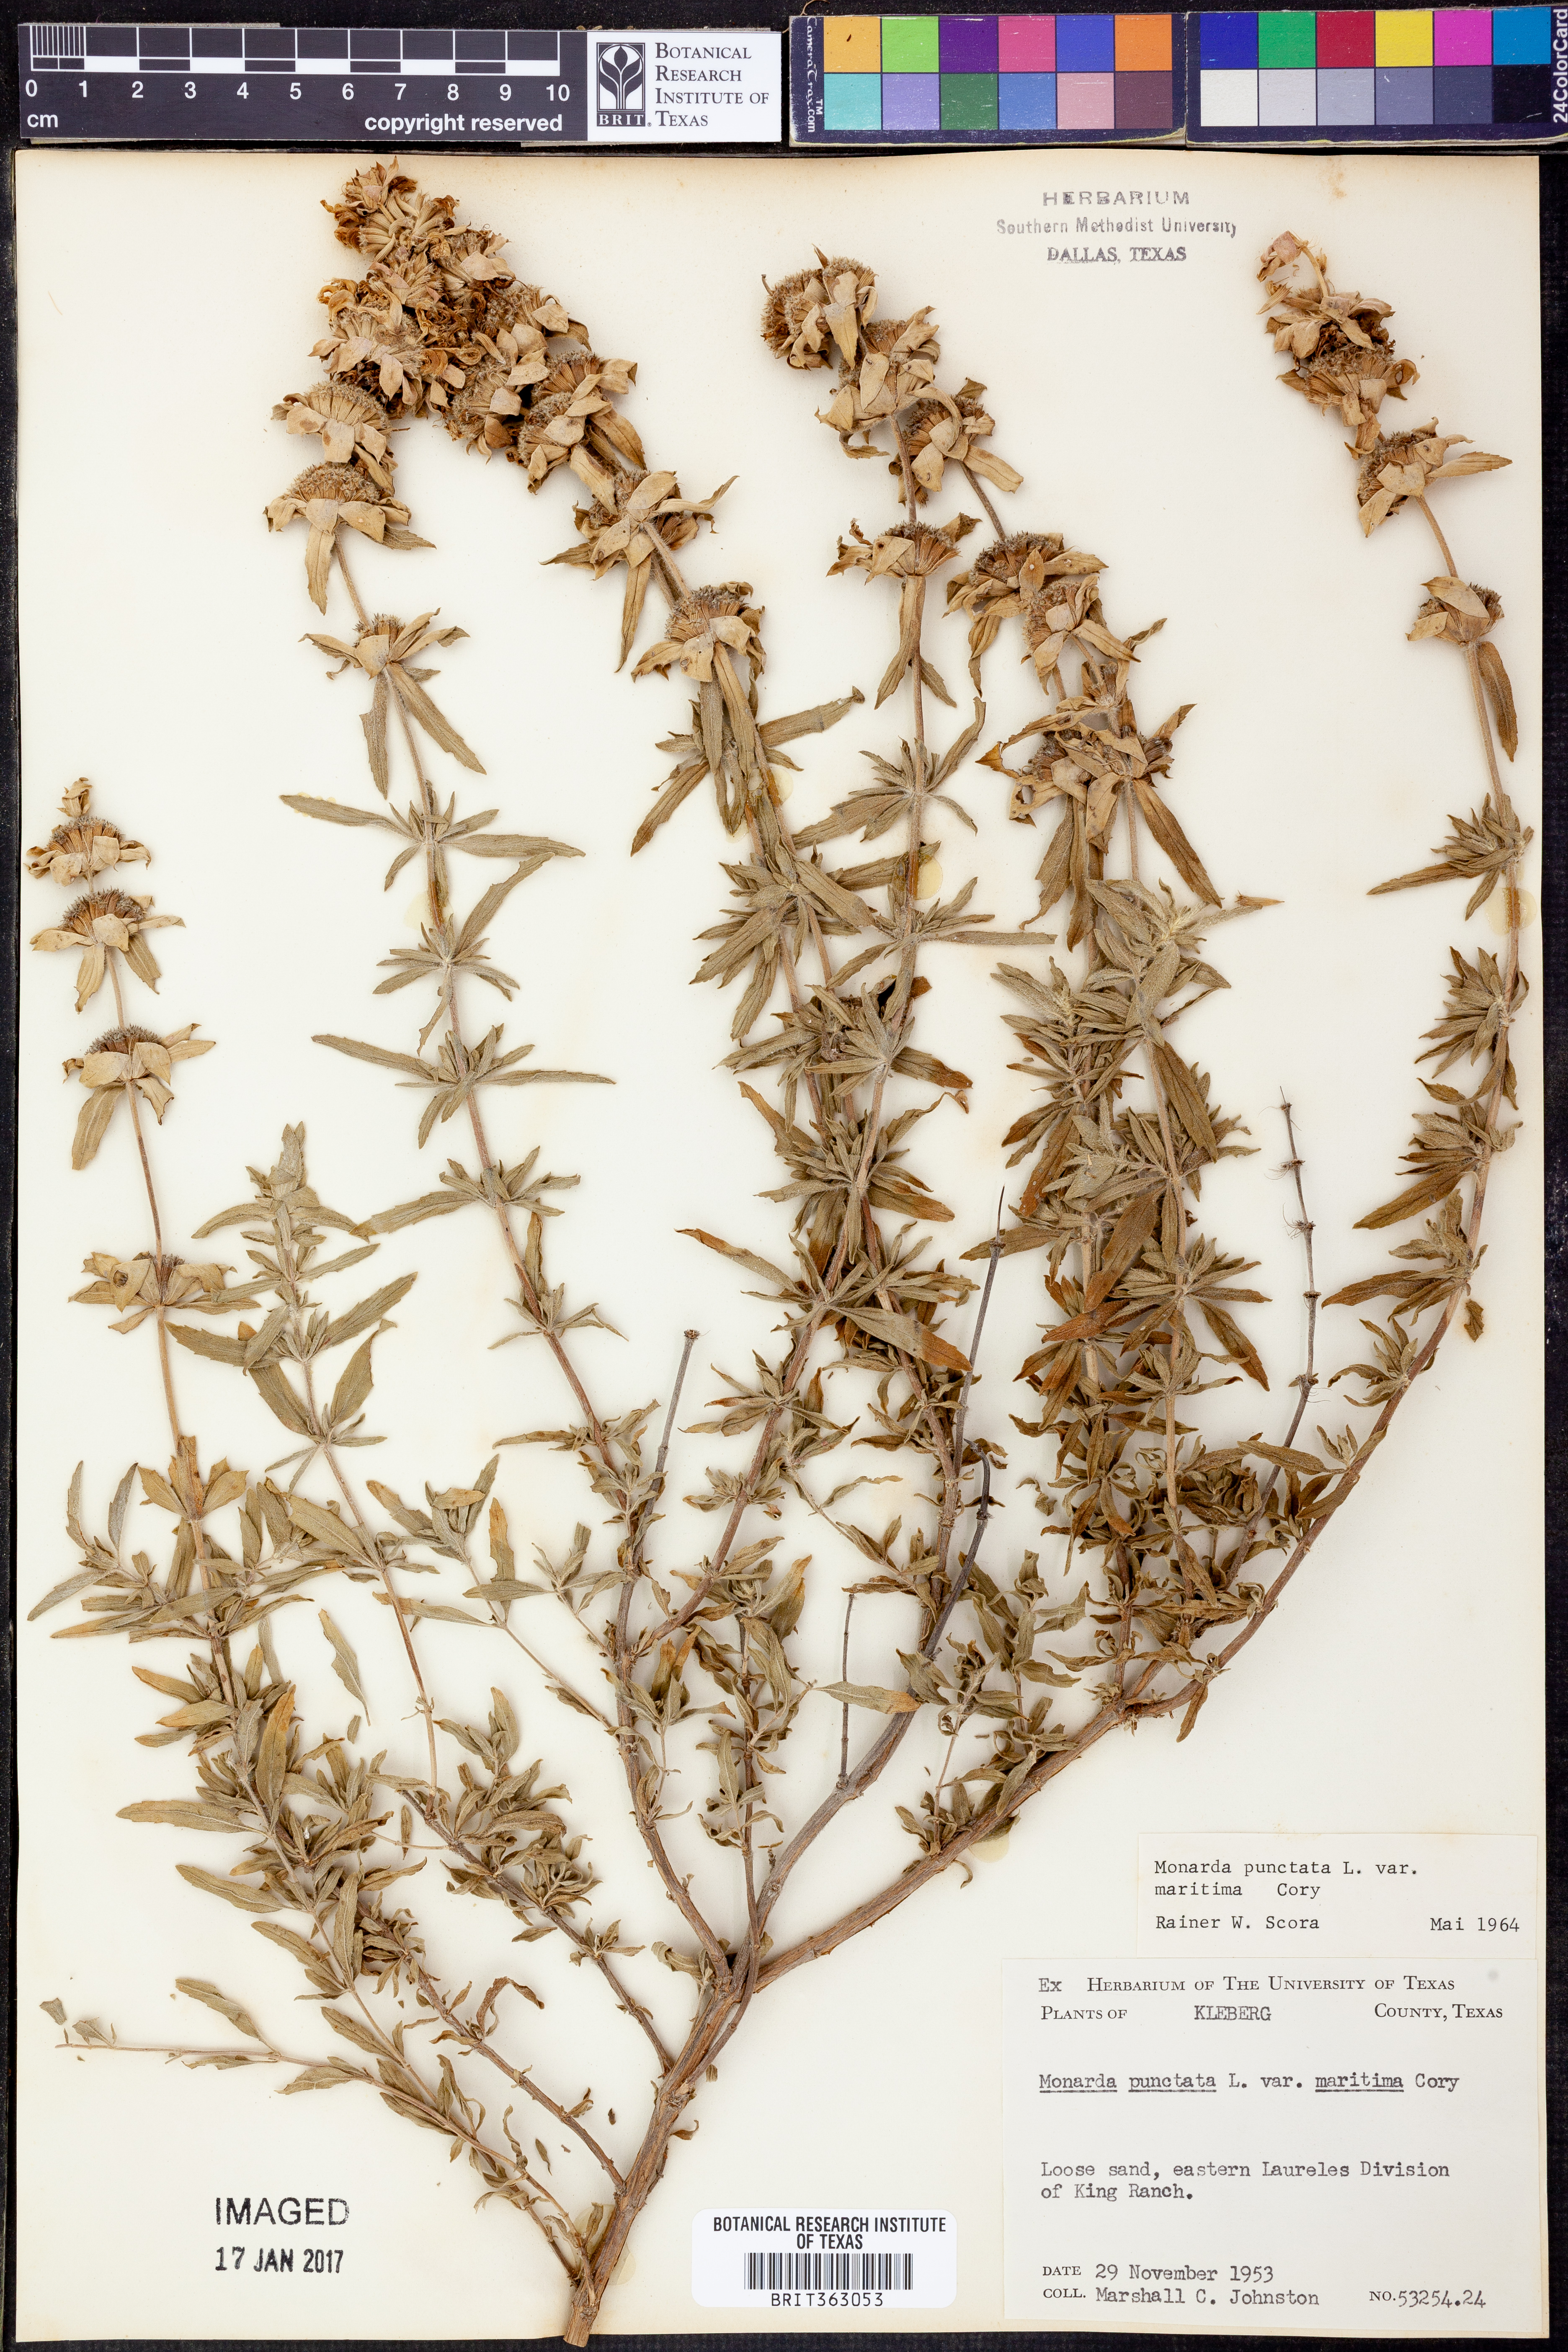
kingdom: Plantae
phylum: Tracheophyta
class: Magnoliopsida
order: Lamiales
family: Lamiaceae
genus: Monarda
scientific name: Monarda maritima
